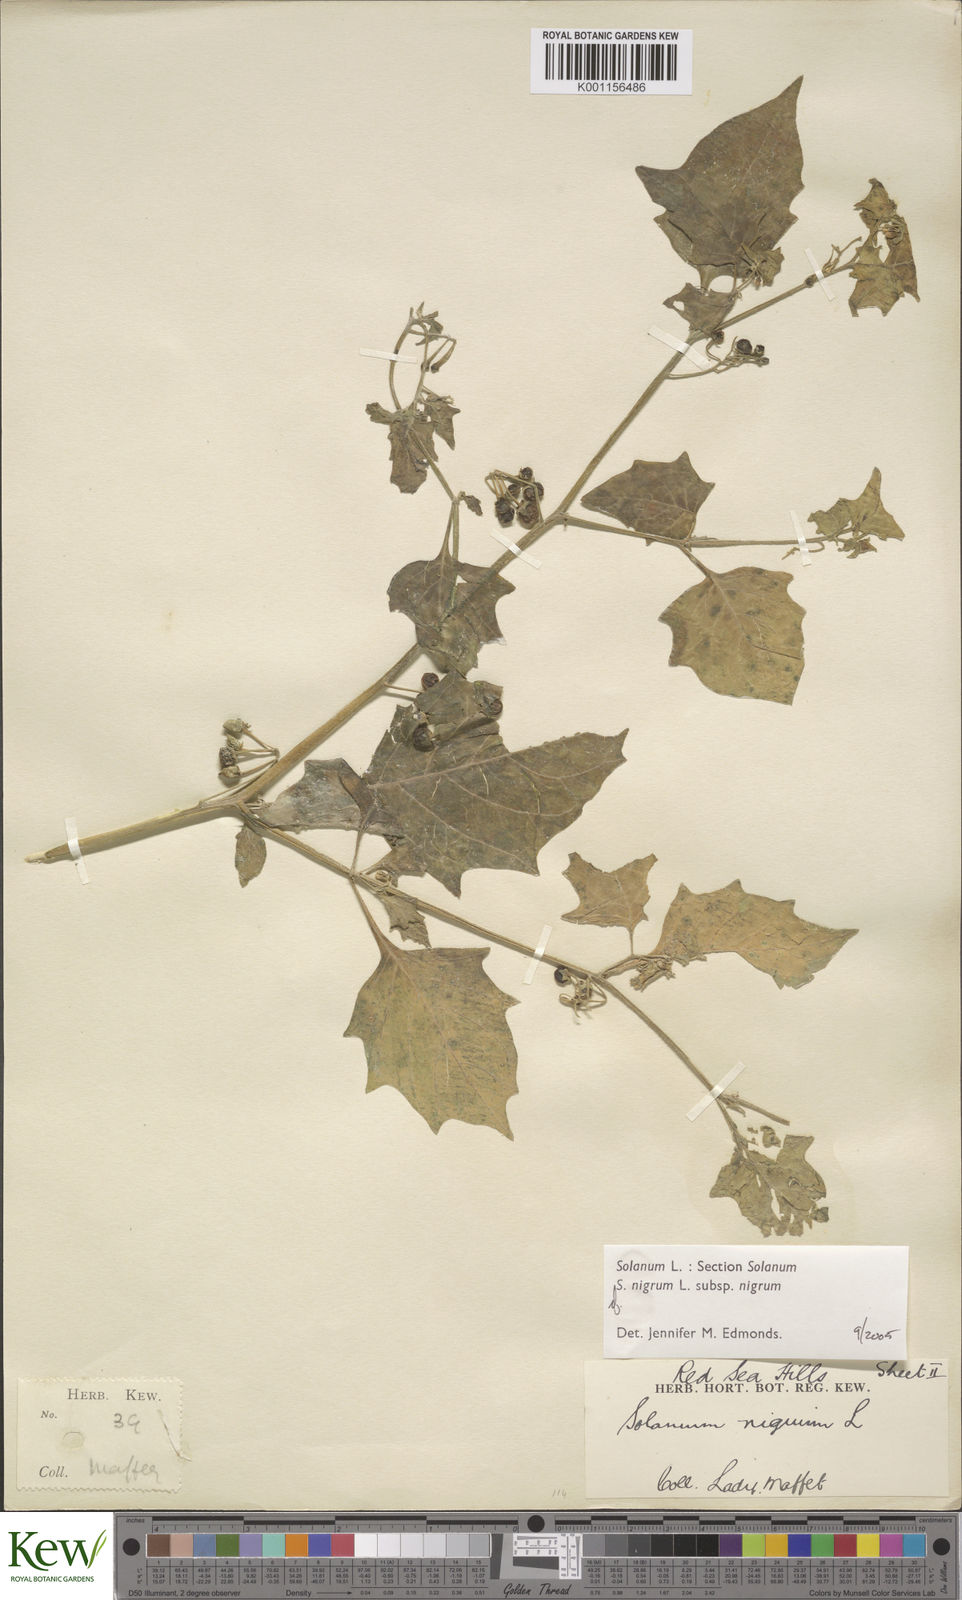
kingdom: Plantae
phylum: Tracheophyta
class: Magnoliopsida
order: Solanales
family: Solanaceae
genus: Solanum
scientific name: Solanum tarderemotum
